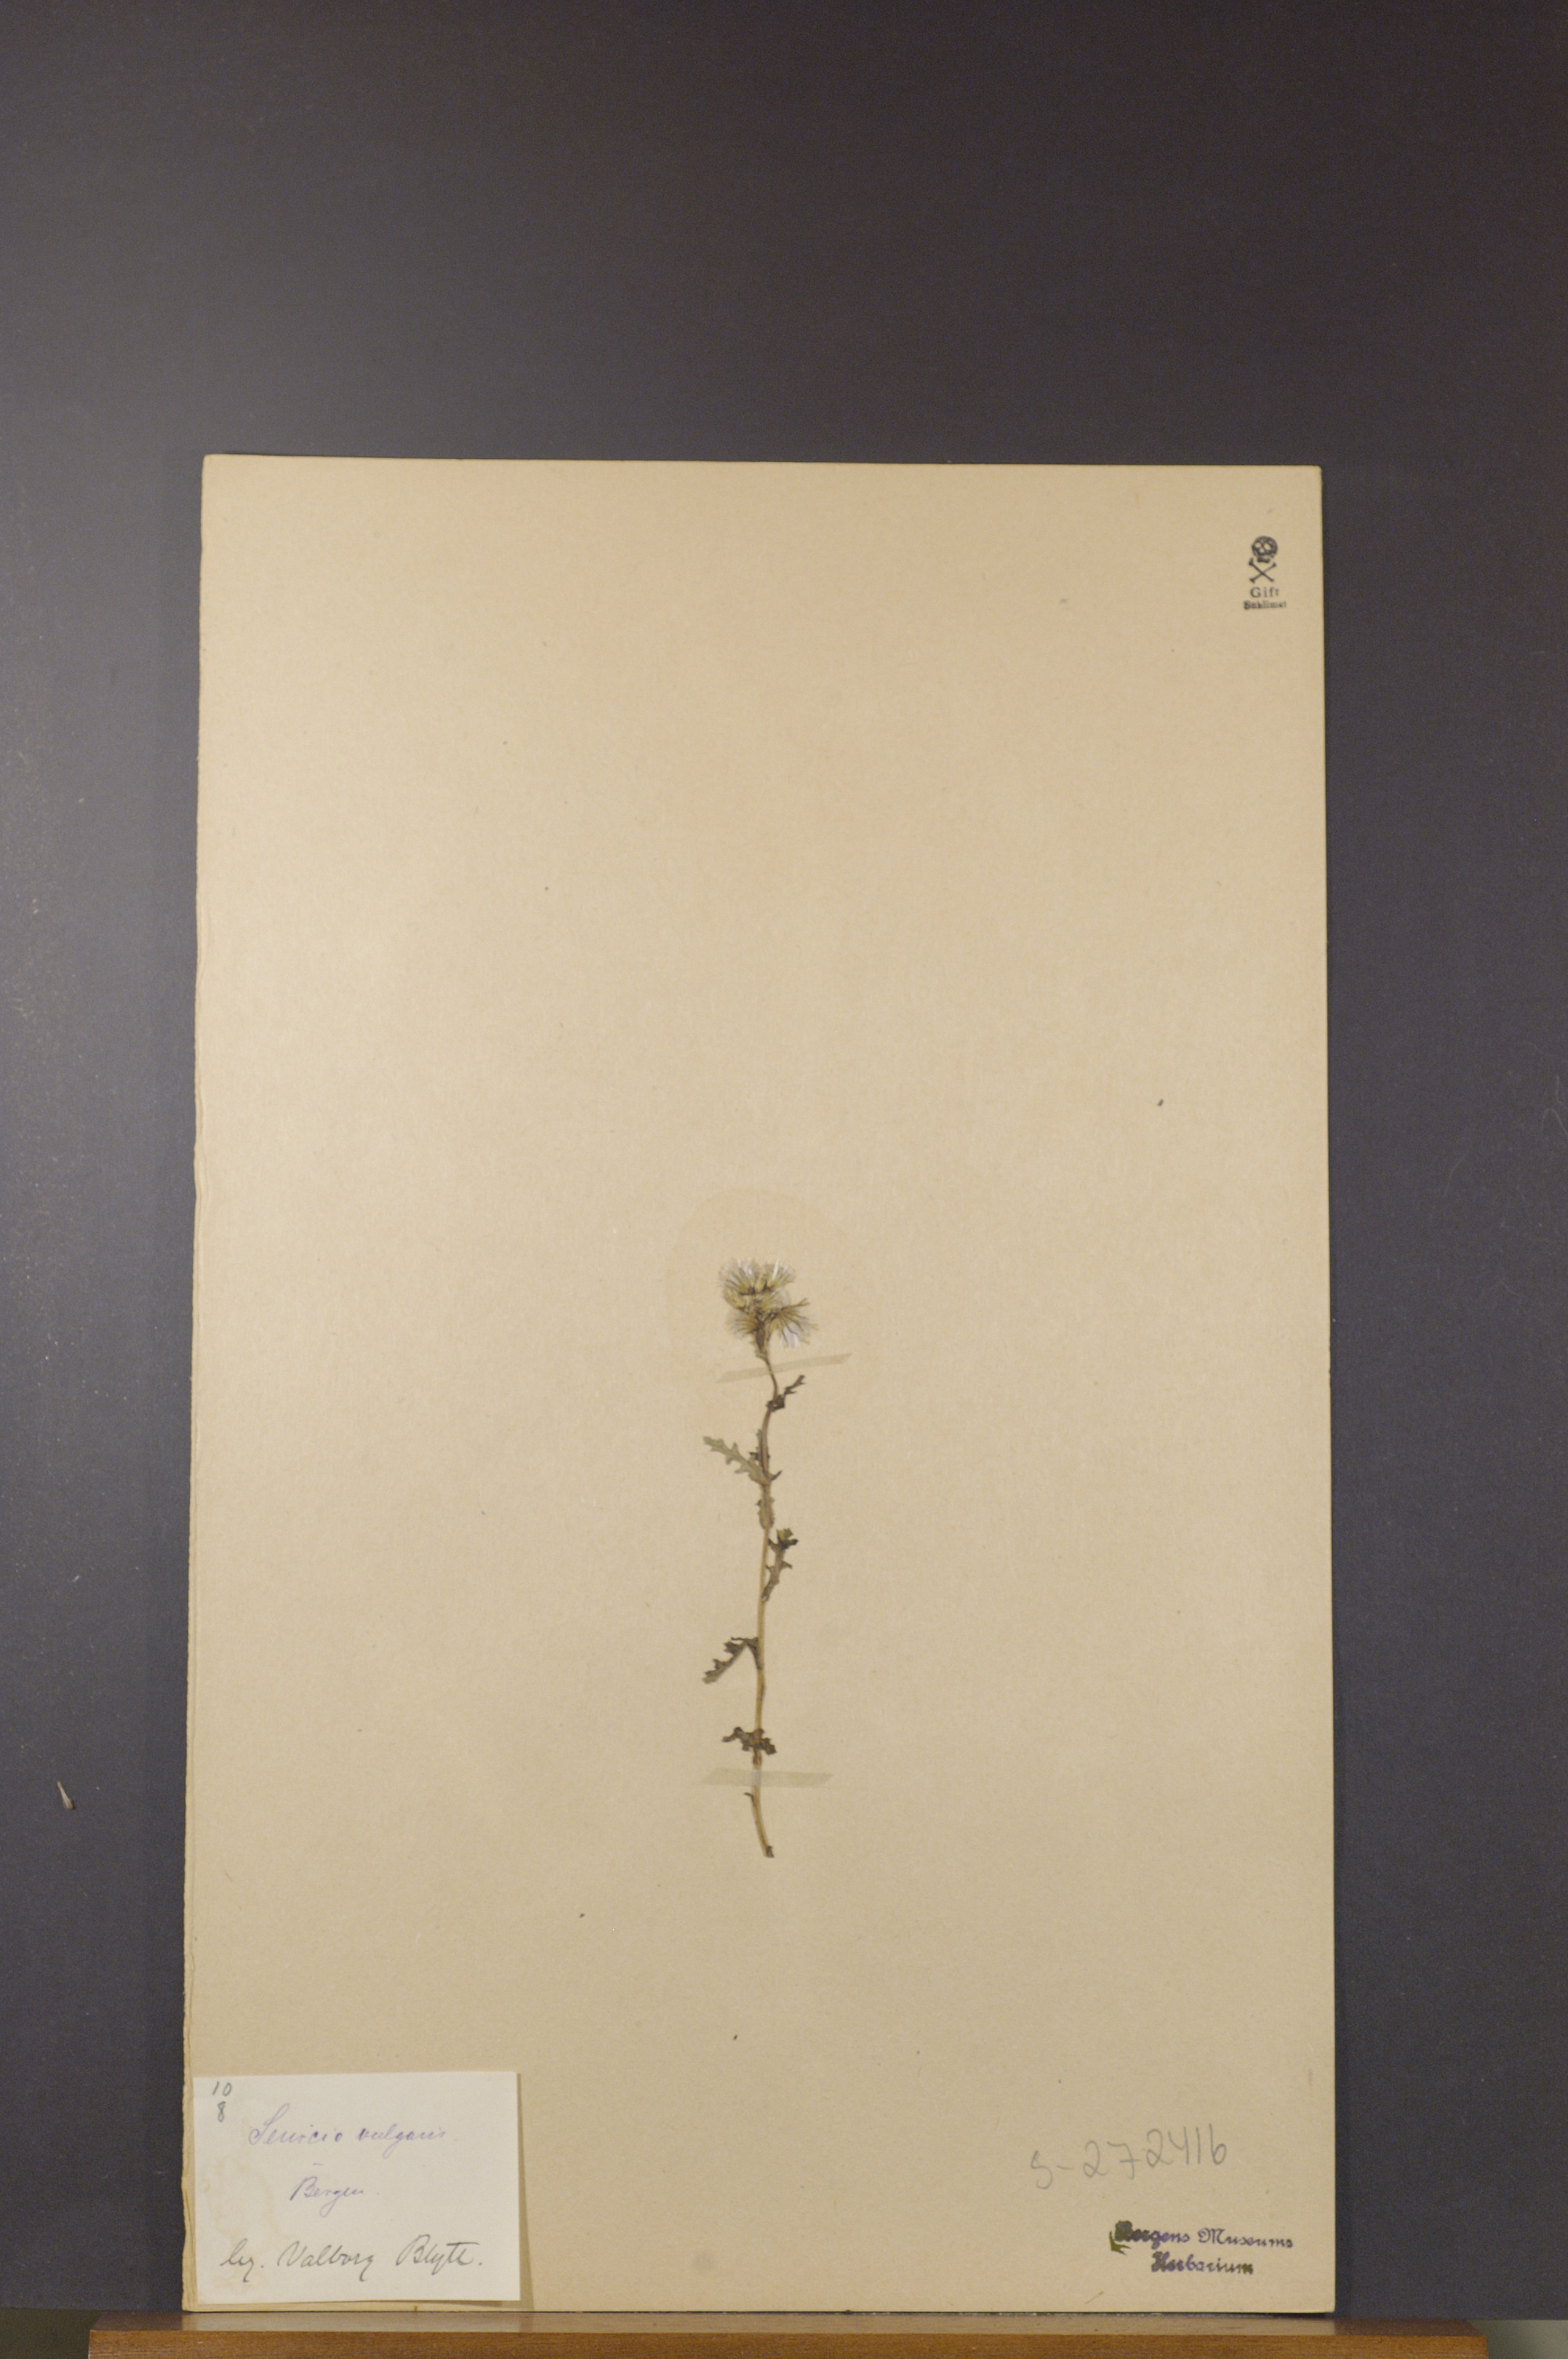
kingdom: Plantae
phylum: Tracheophyta
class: Magnoliopsida
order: Asterales
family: Asteraceae
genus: Senecio
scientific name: Senecio vulgaris
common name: Old-man-in-the-spring
